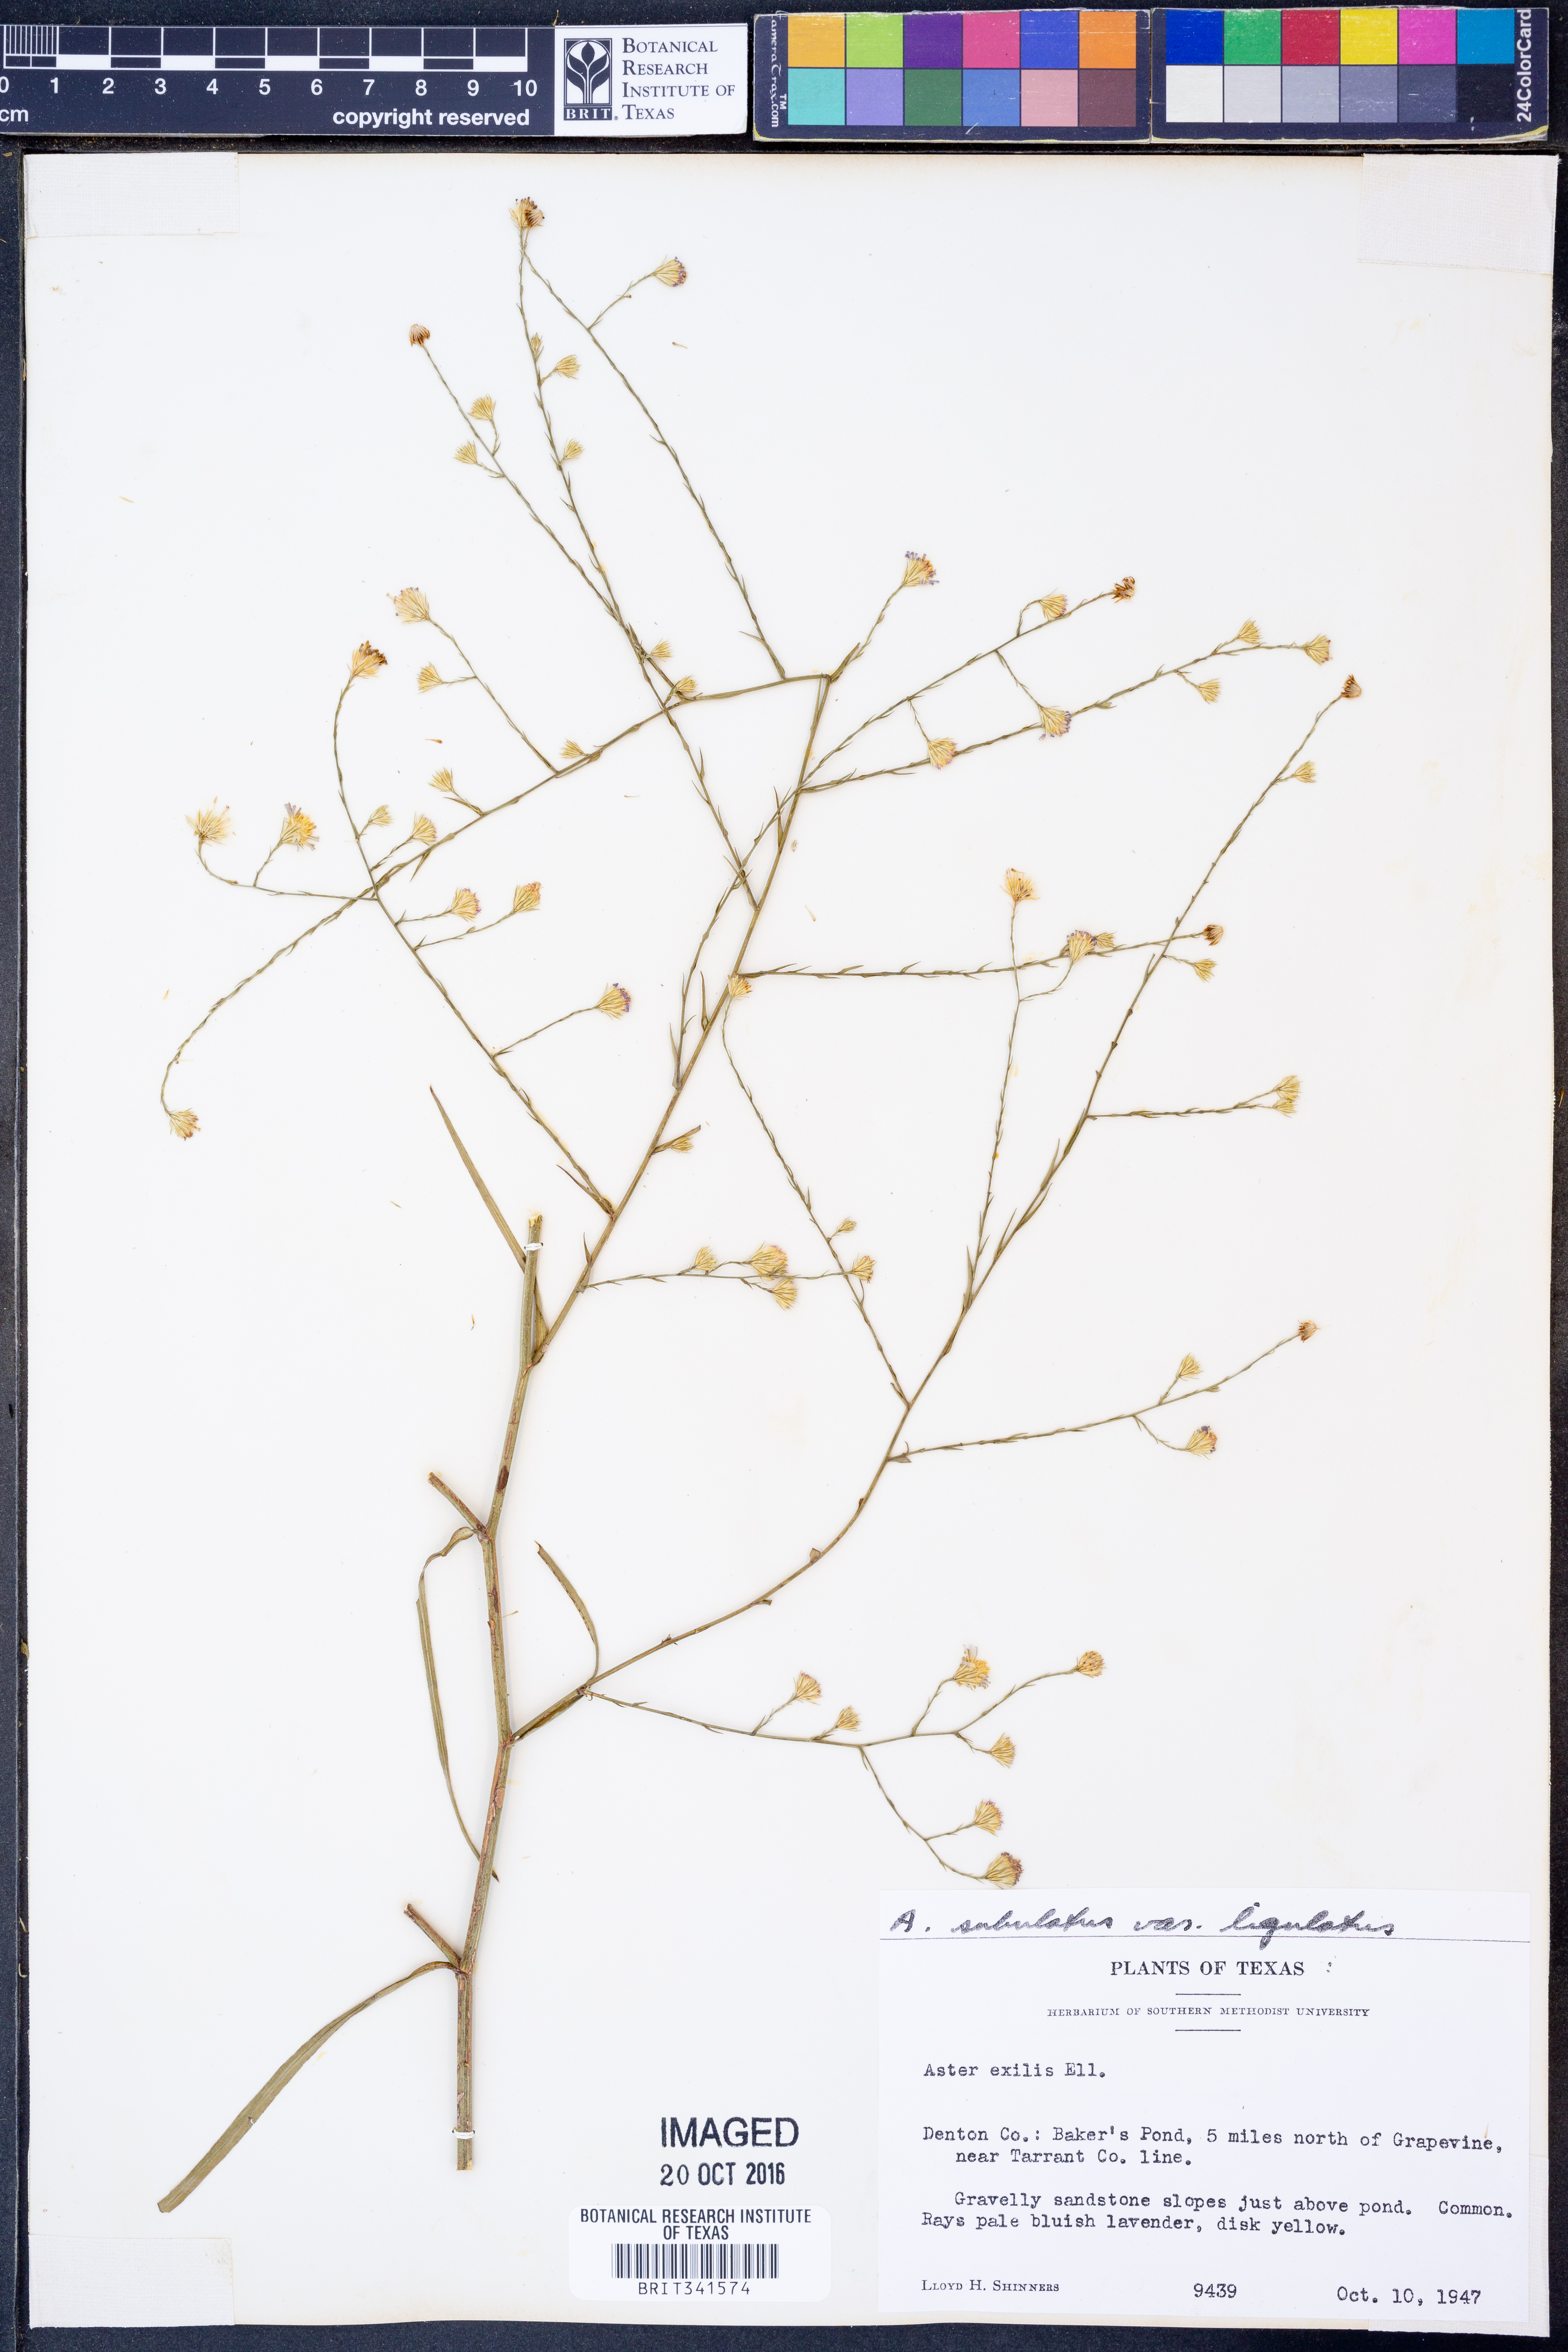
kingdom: Plantae
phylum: Tracheophyta
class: Magnoliopsida
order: Asterales
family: Asteraceae
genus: Symphyotrichum
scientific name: Symphyotrichum divaricatum
